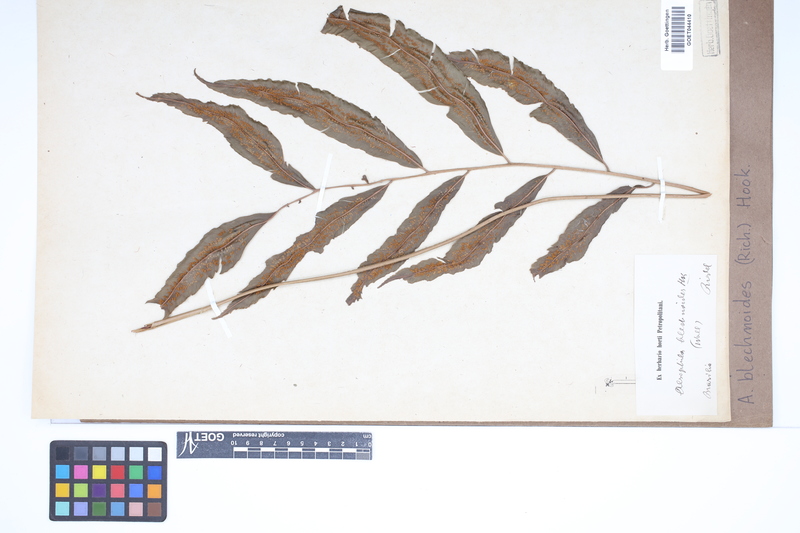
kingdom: Plantae
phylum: Tracheophyta
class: Polypodiopsida
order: Cyatheales
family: Metaxyaceae
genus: Metaxya
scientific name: Metaxya rostrata
